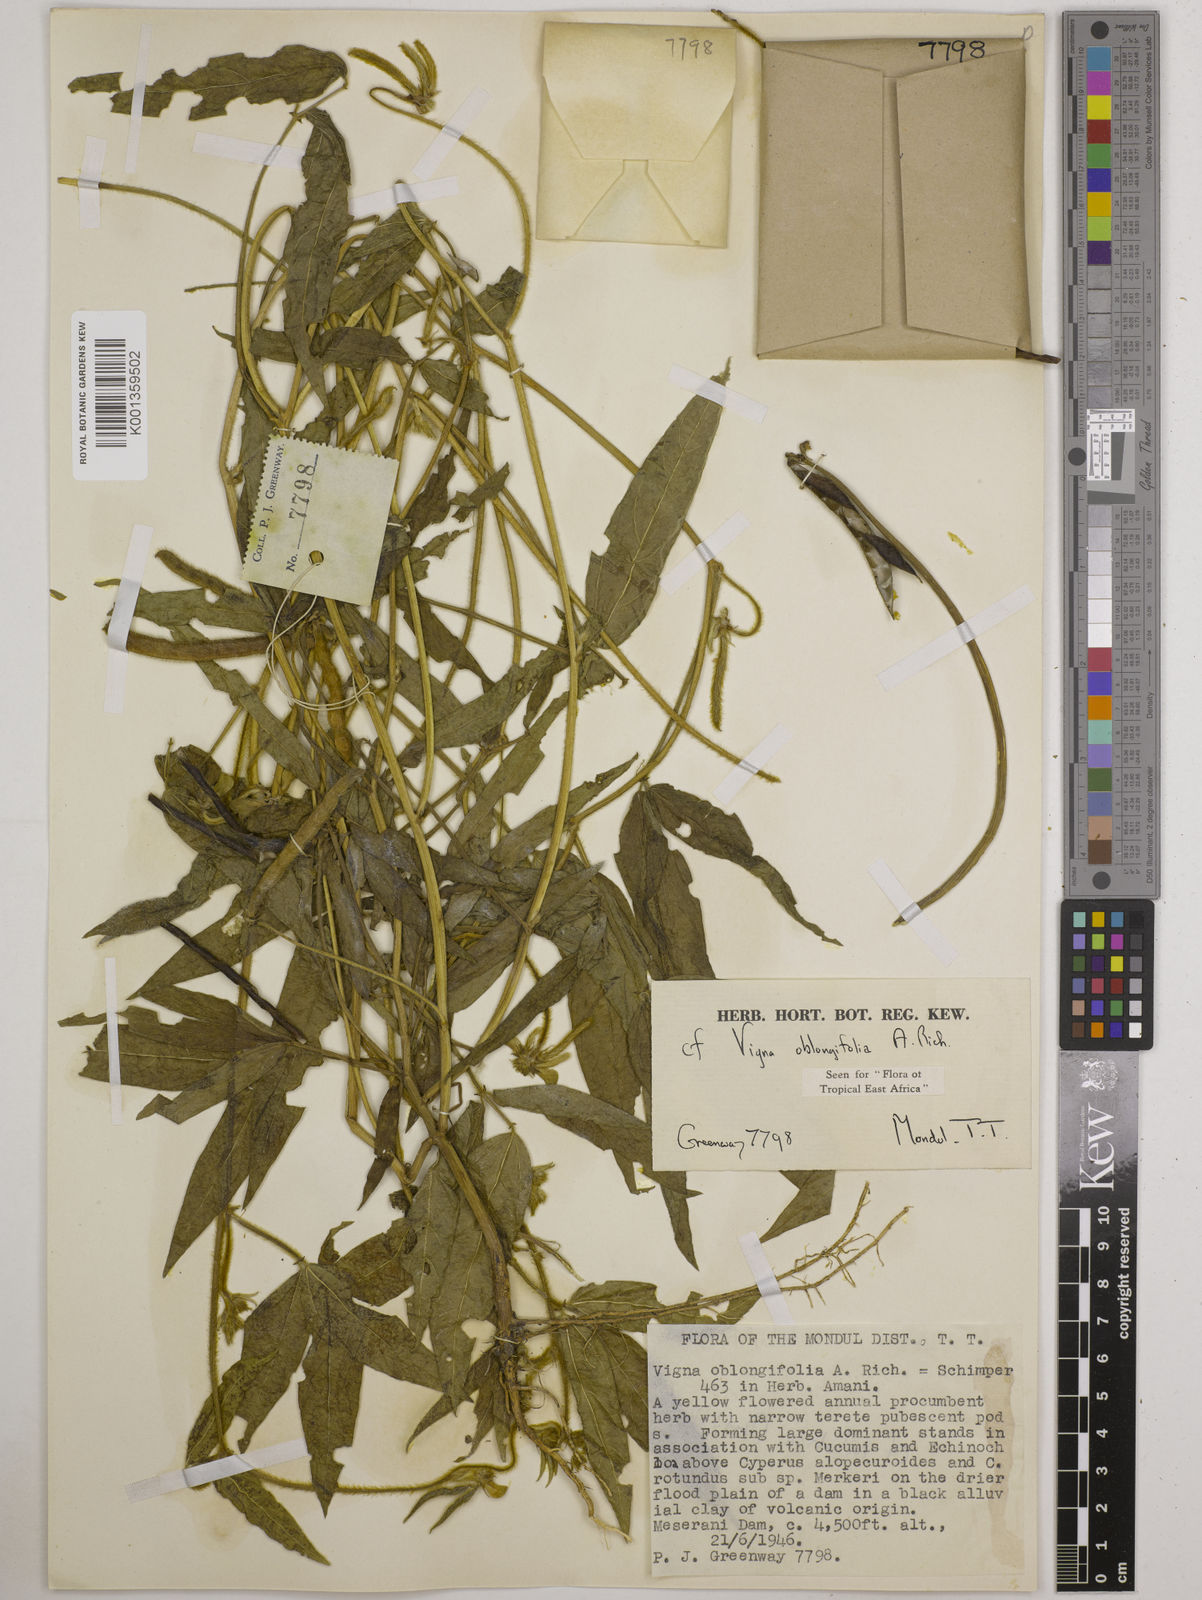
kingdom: Plantae
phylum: Tracheophyta
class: Magnoliopsida
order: Fabales
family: Fabaceae
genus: Vigna
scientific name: Vigna oblongifolia
